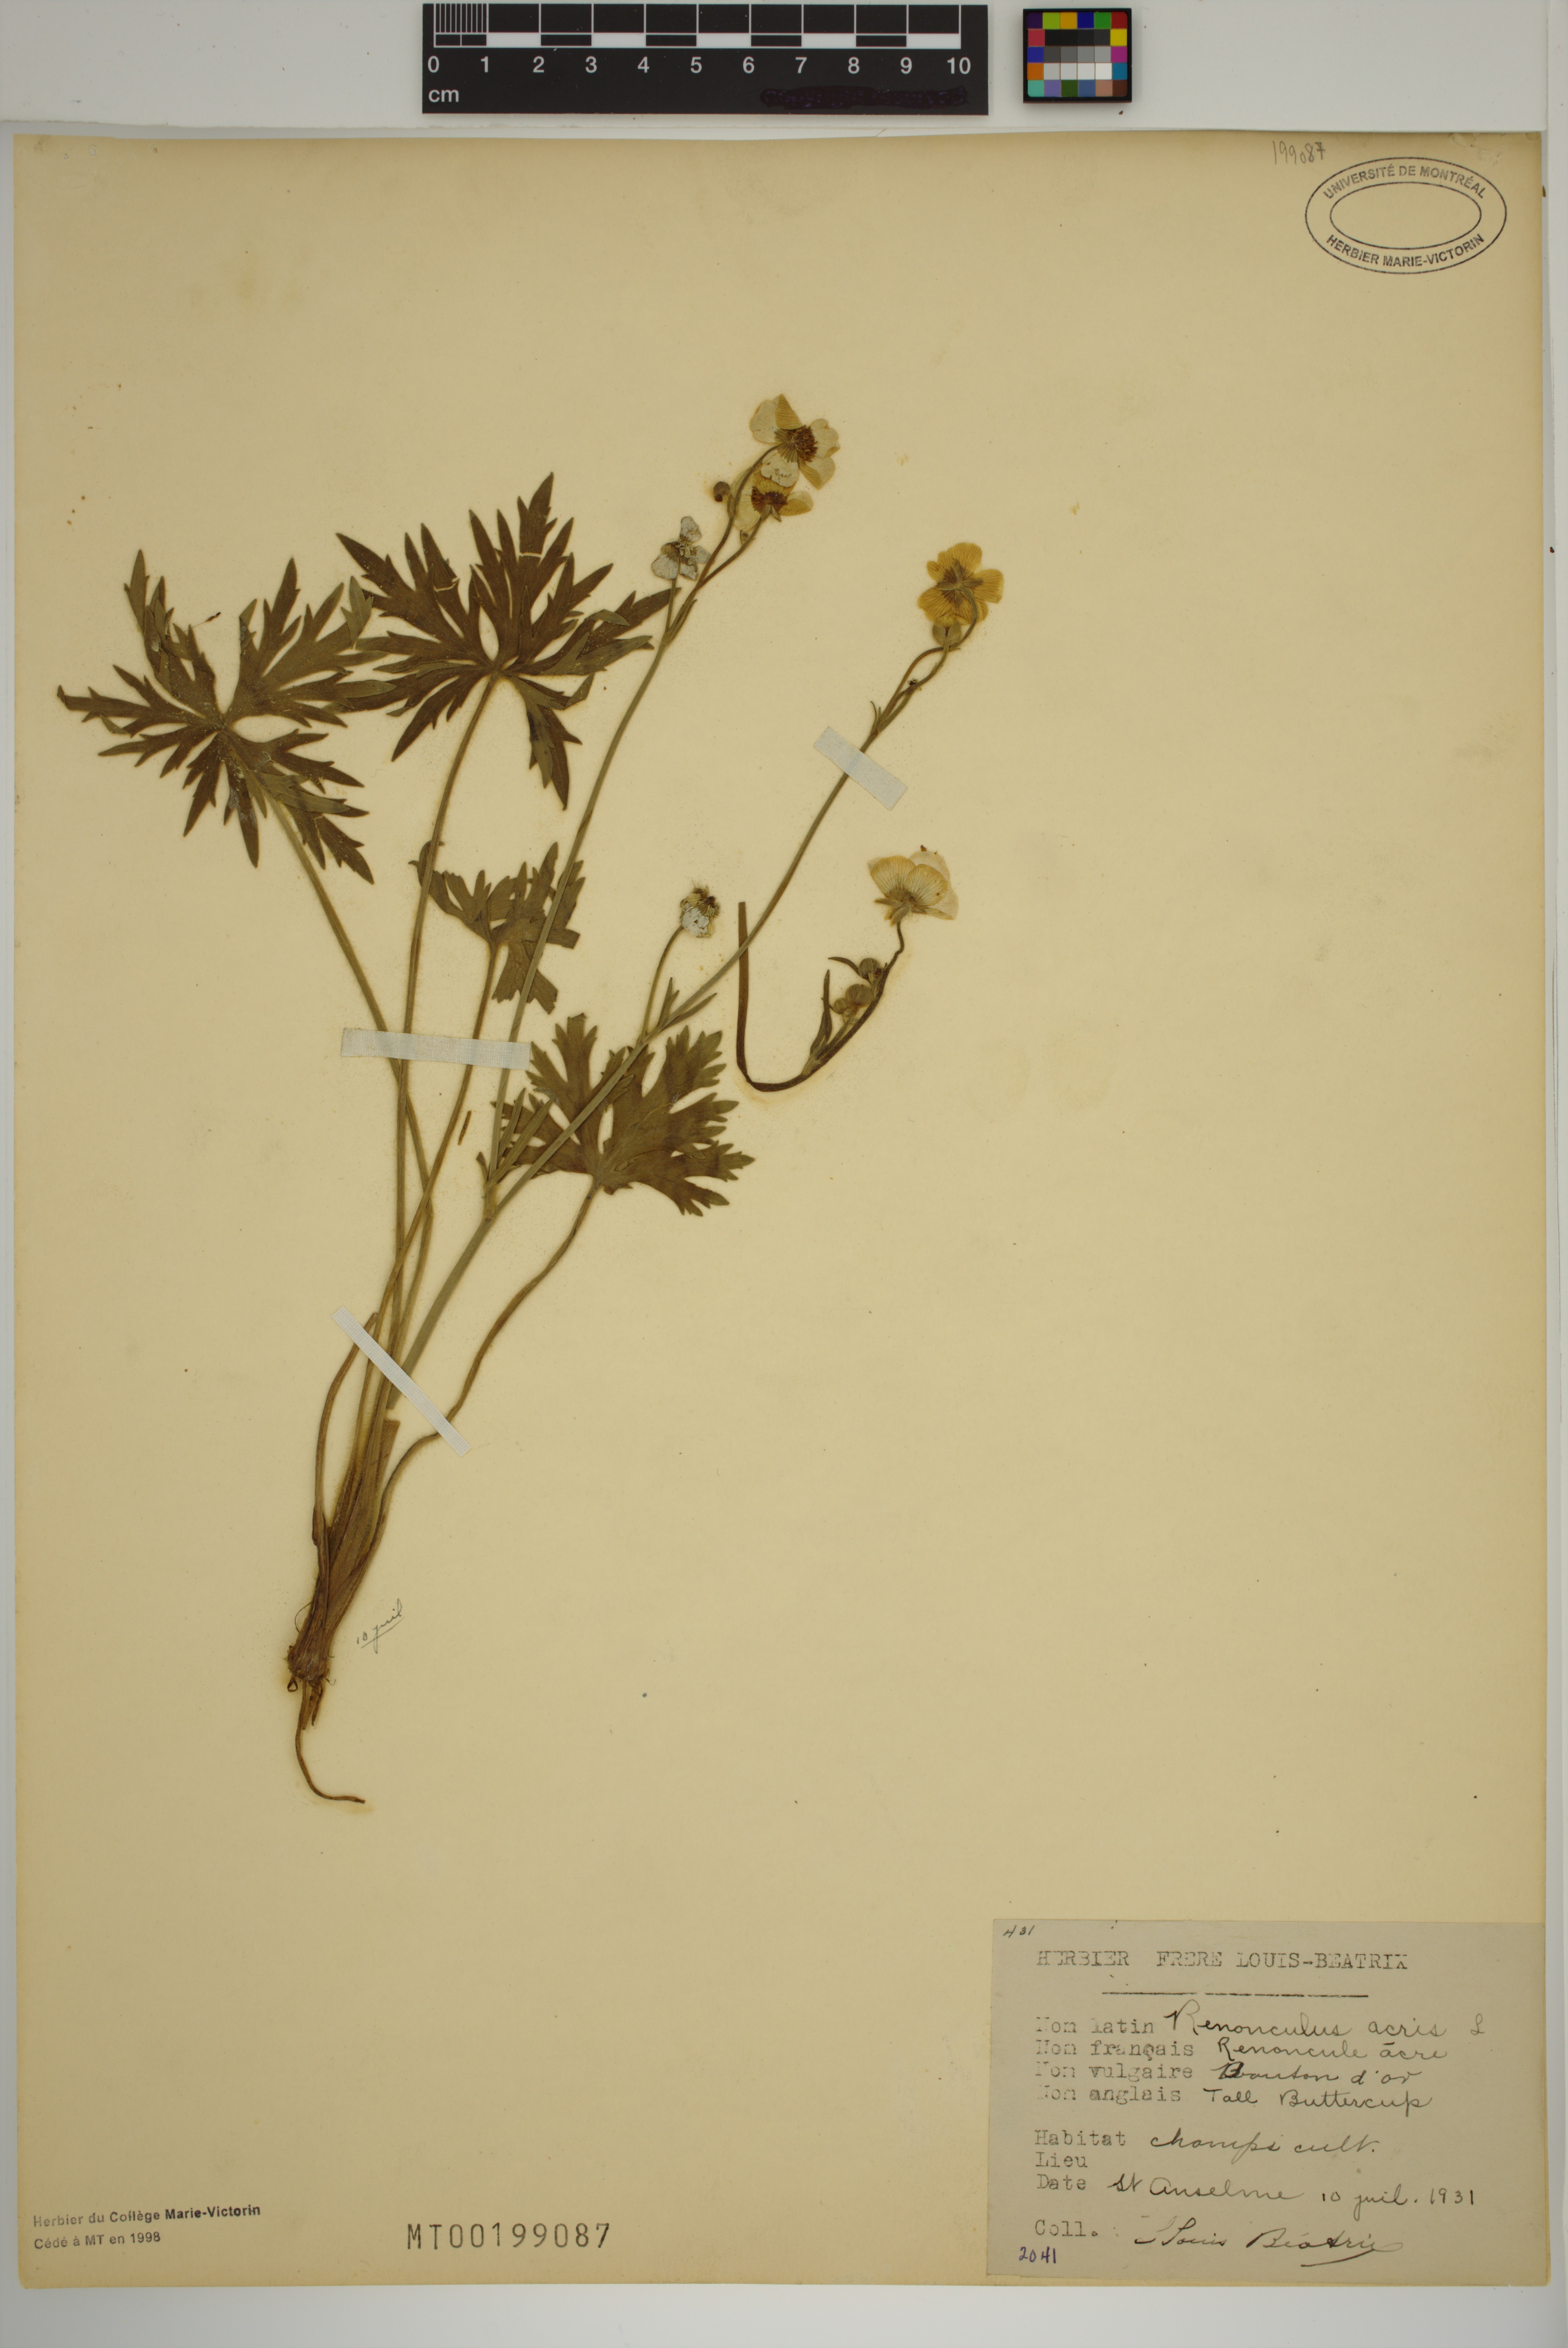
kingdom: Plantae
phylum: Tracheophyta
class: Magnoliopsida
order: Ranunculales
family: Ranunculaceae
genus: Ranunculus
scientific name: Ranunculus acris
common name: Meadow buttercup
